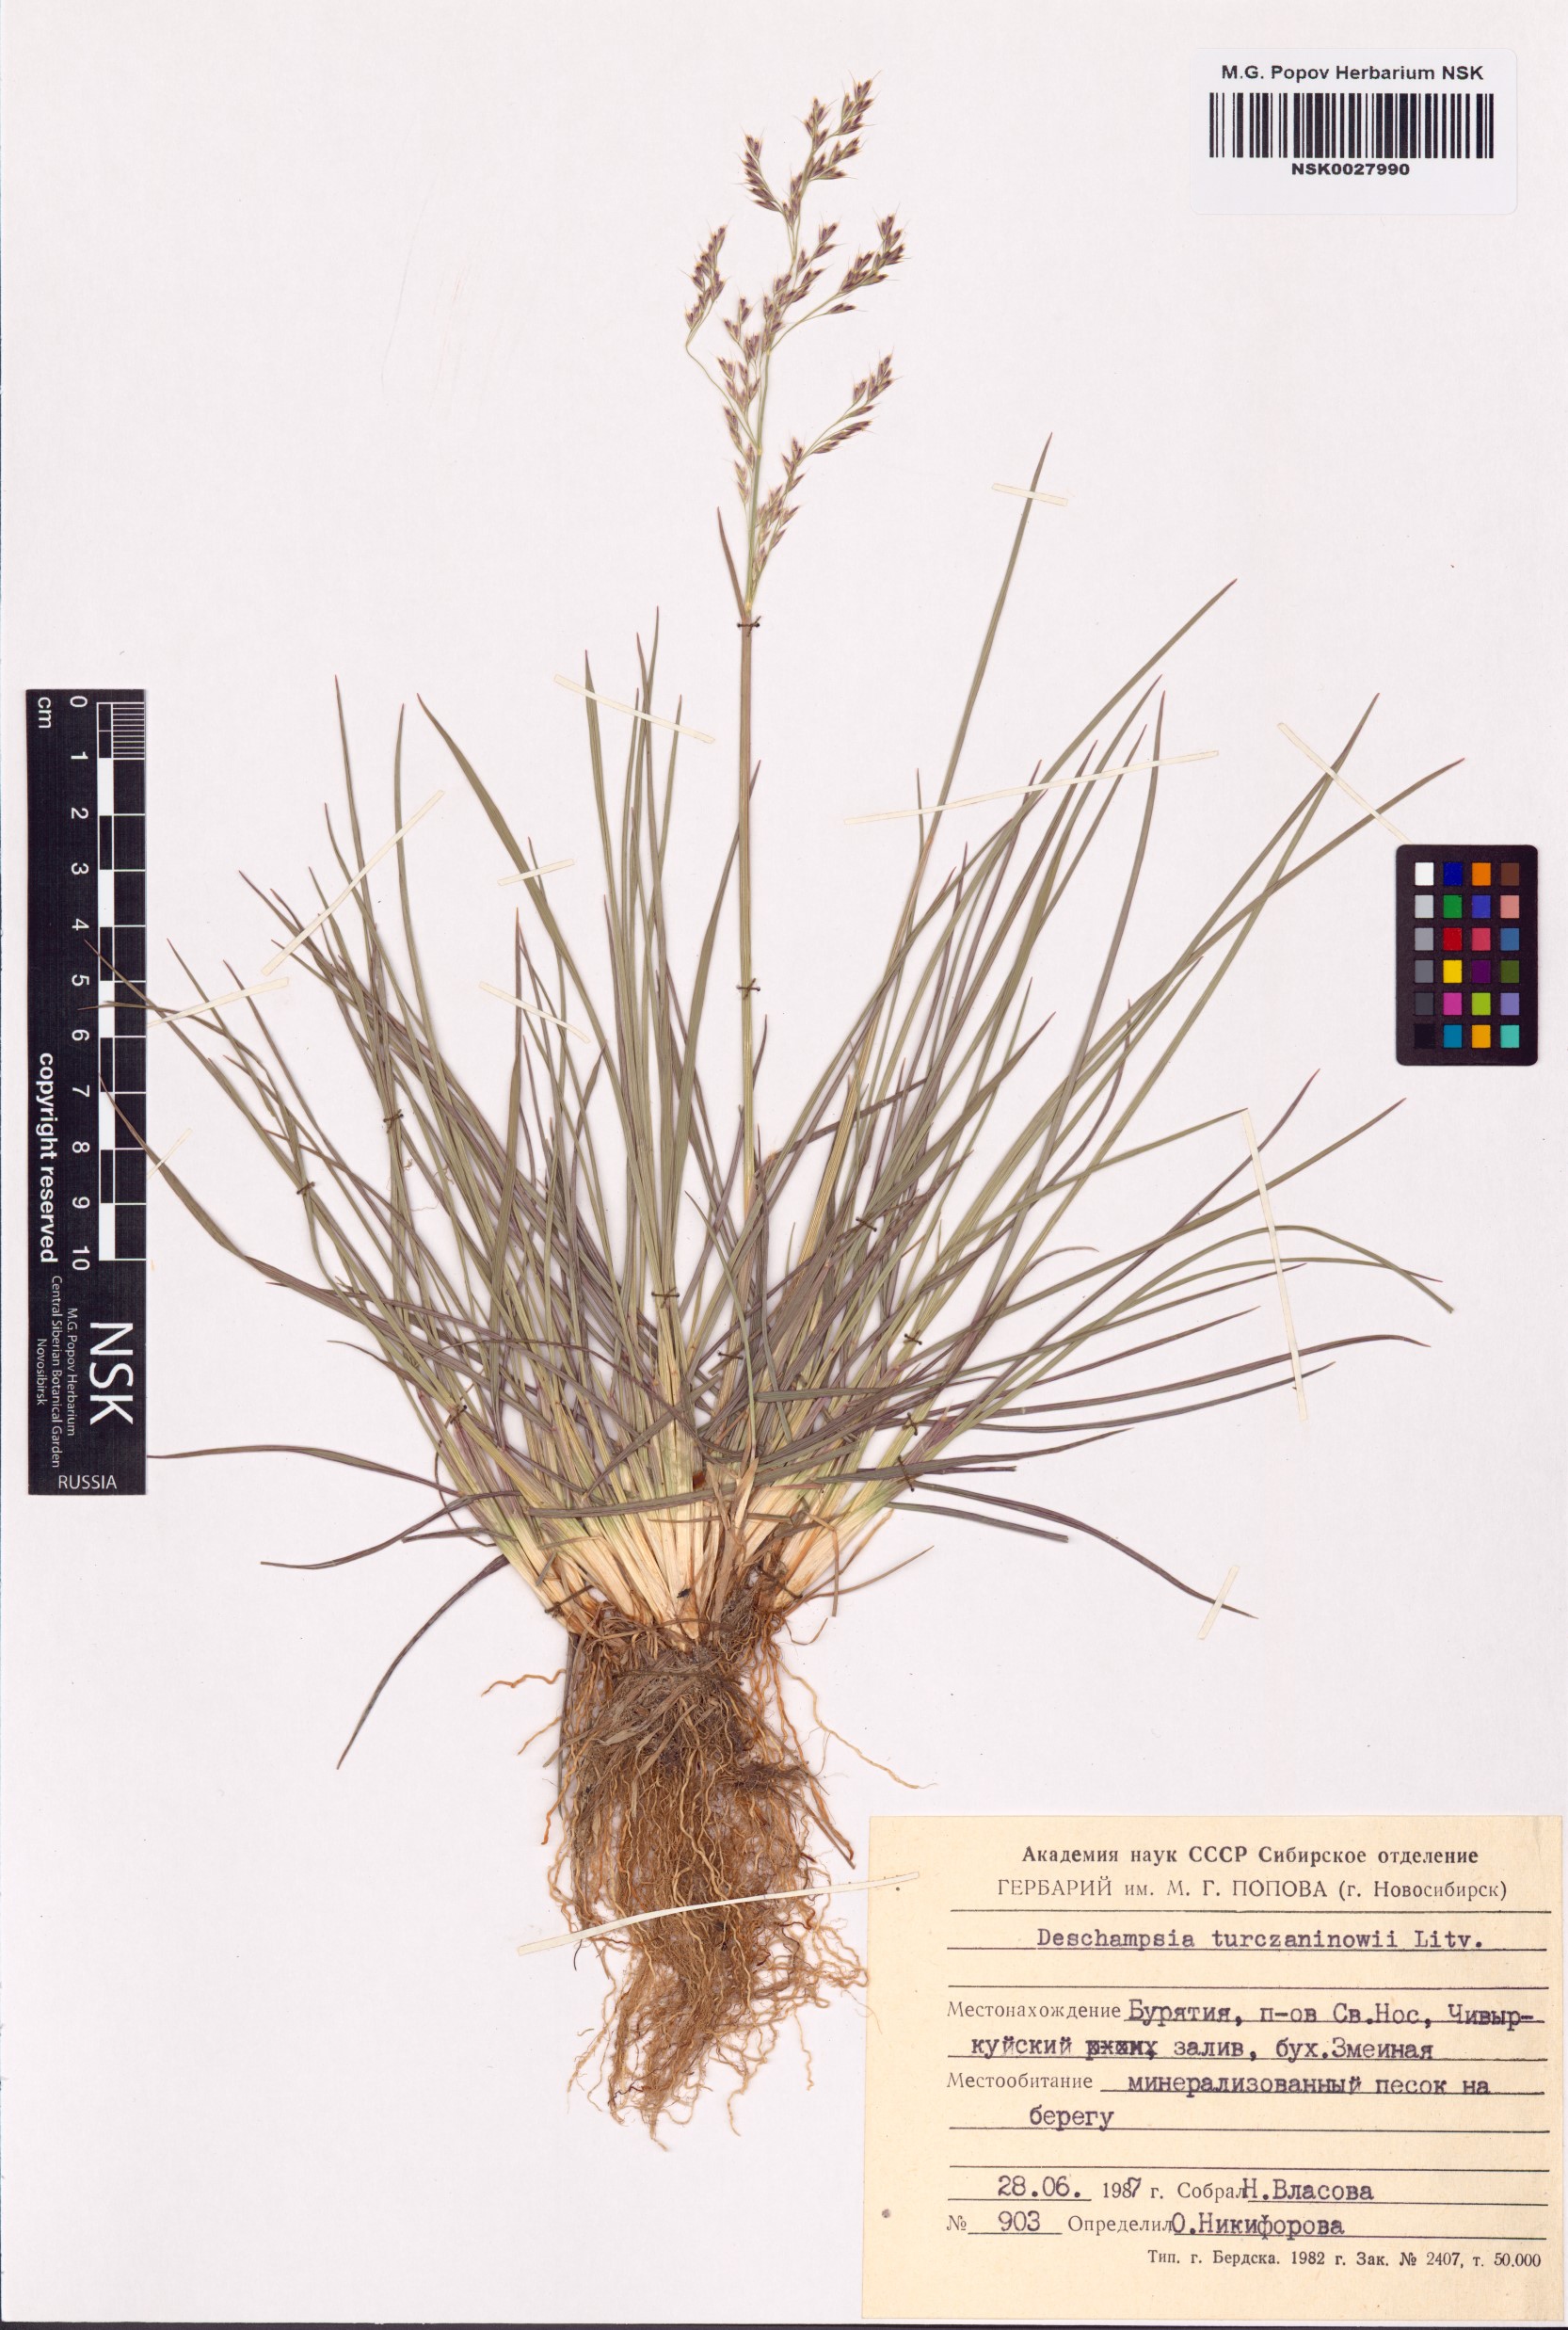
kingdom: Plantae
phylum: Tracheophyta
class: Liliopsida
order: Poales
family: Poaceae
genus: Deschampsia
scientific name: Deschampsia cespitosa
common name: Tufted hair-grass
